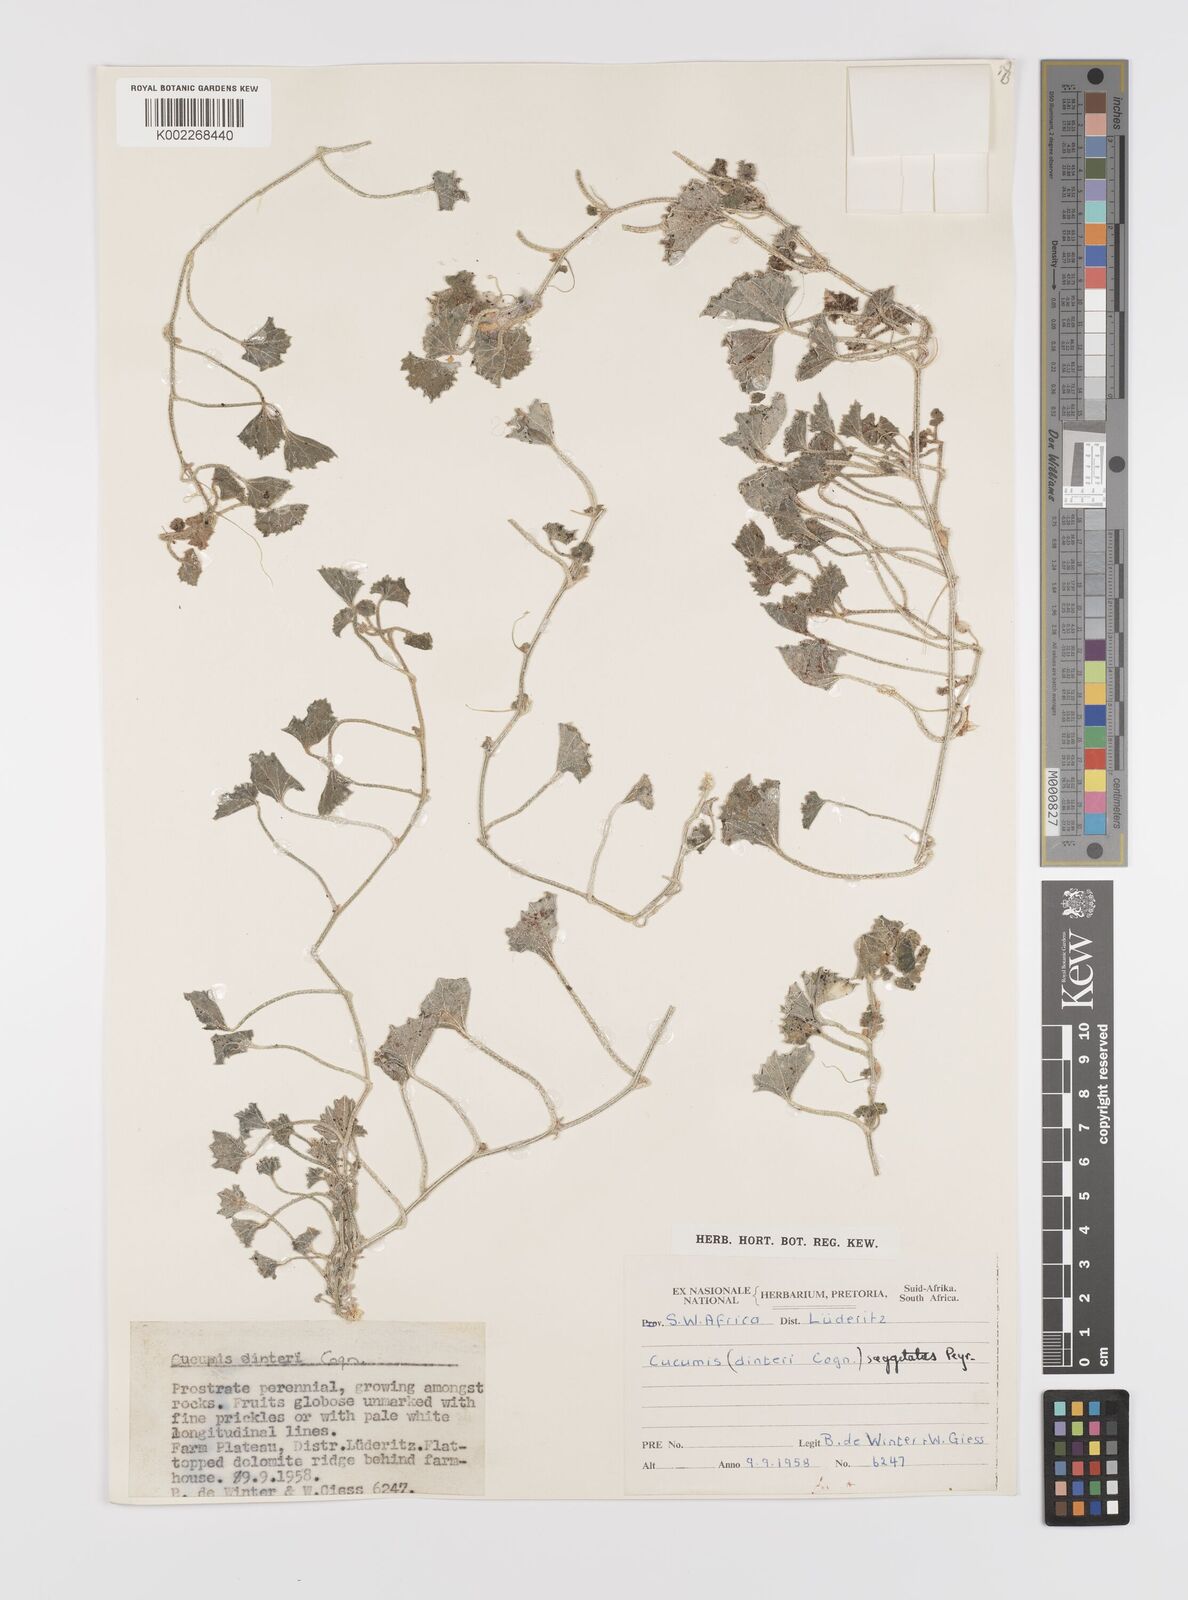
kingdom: Plantae
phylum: Tracheophyta
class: Magnoliopsida
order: Cucurbitales
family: Cucurbitaceae
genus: Cucumis
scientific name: Cucumis sagittatus
